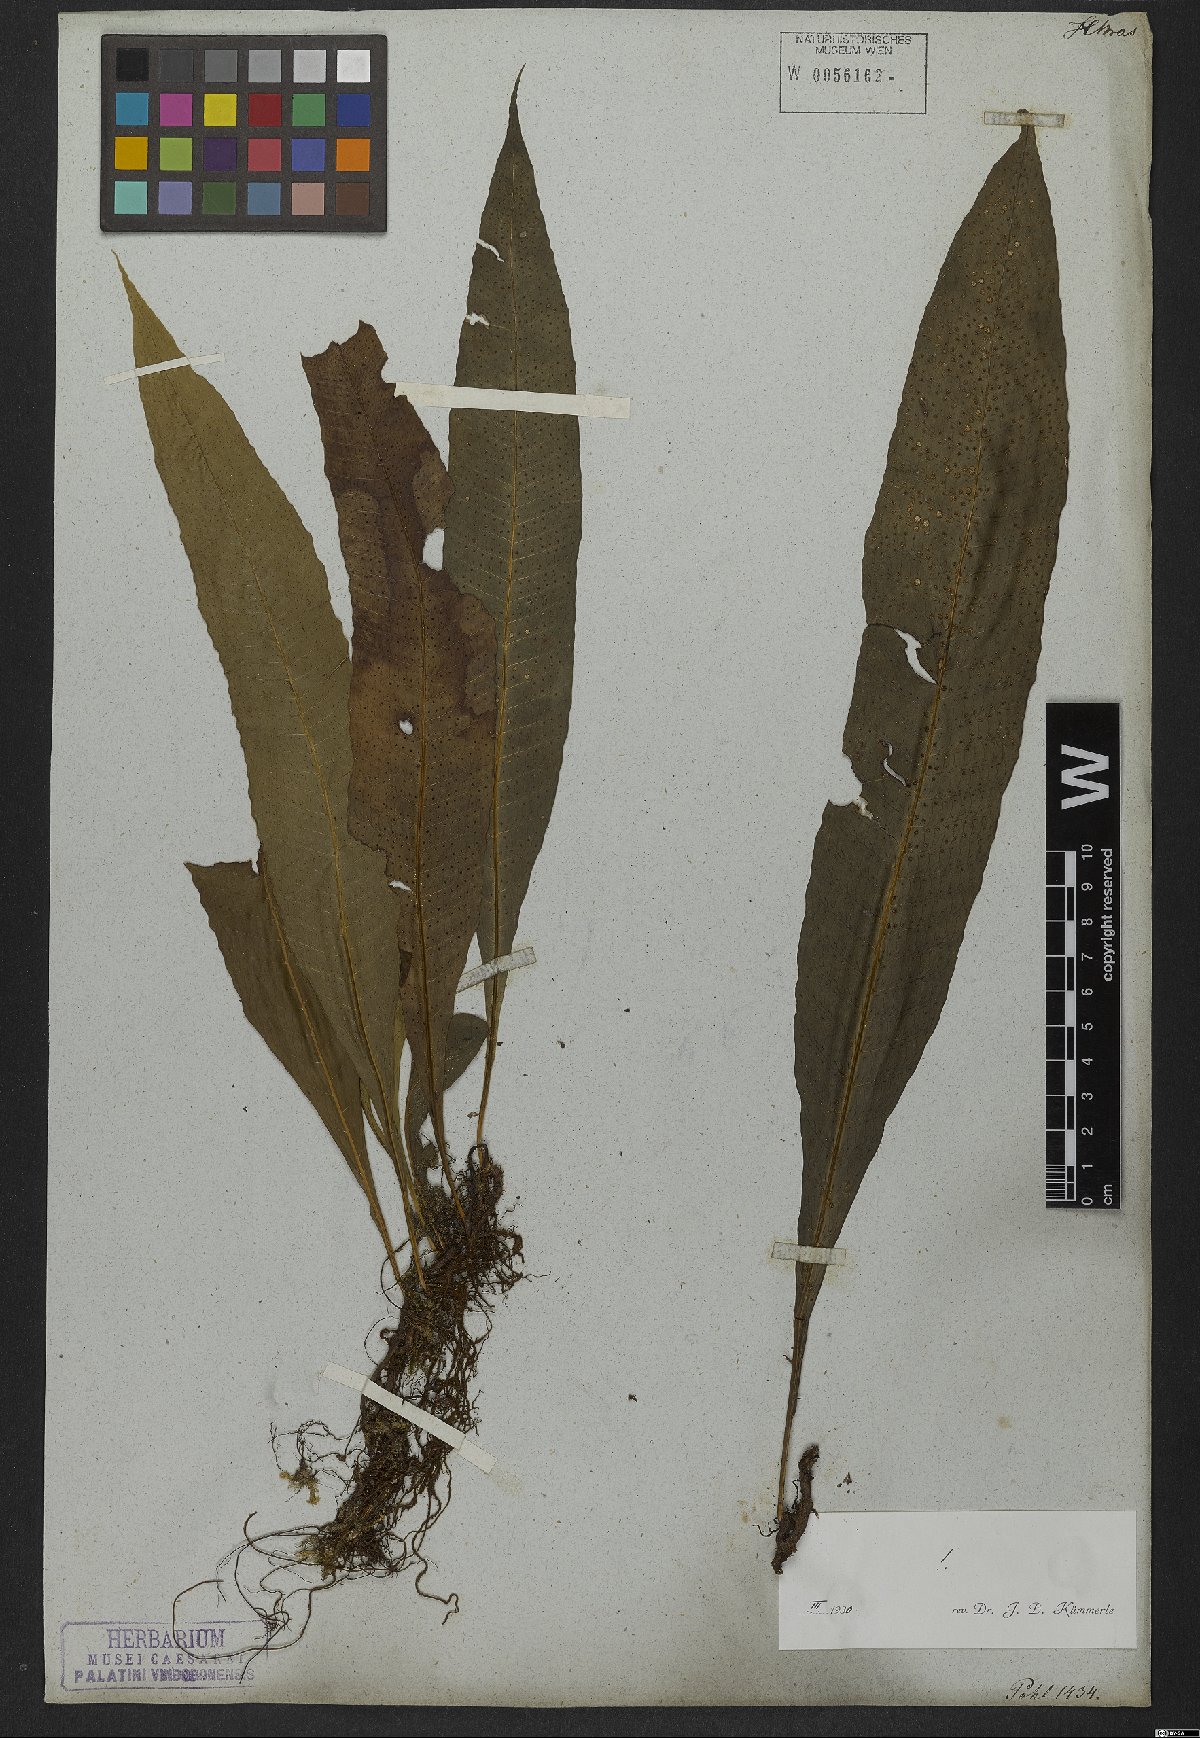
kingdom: Plantae
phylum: Tracheophyta
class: Polypodiopsida
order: Polypodiales
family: Polypodiaceae
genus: Campyloneurum
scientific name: Campyloneurum nitidum
